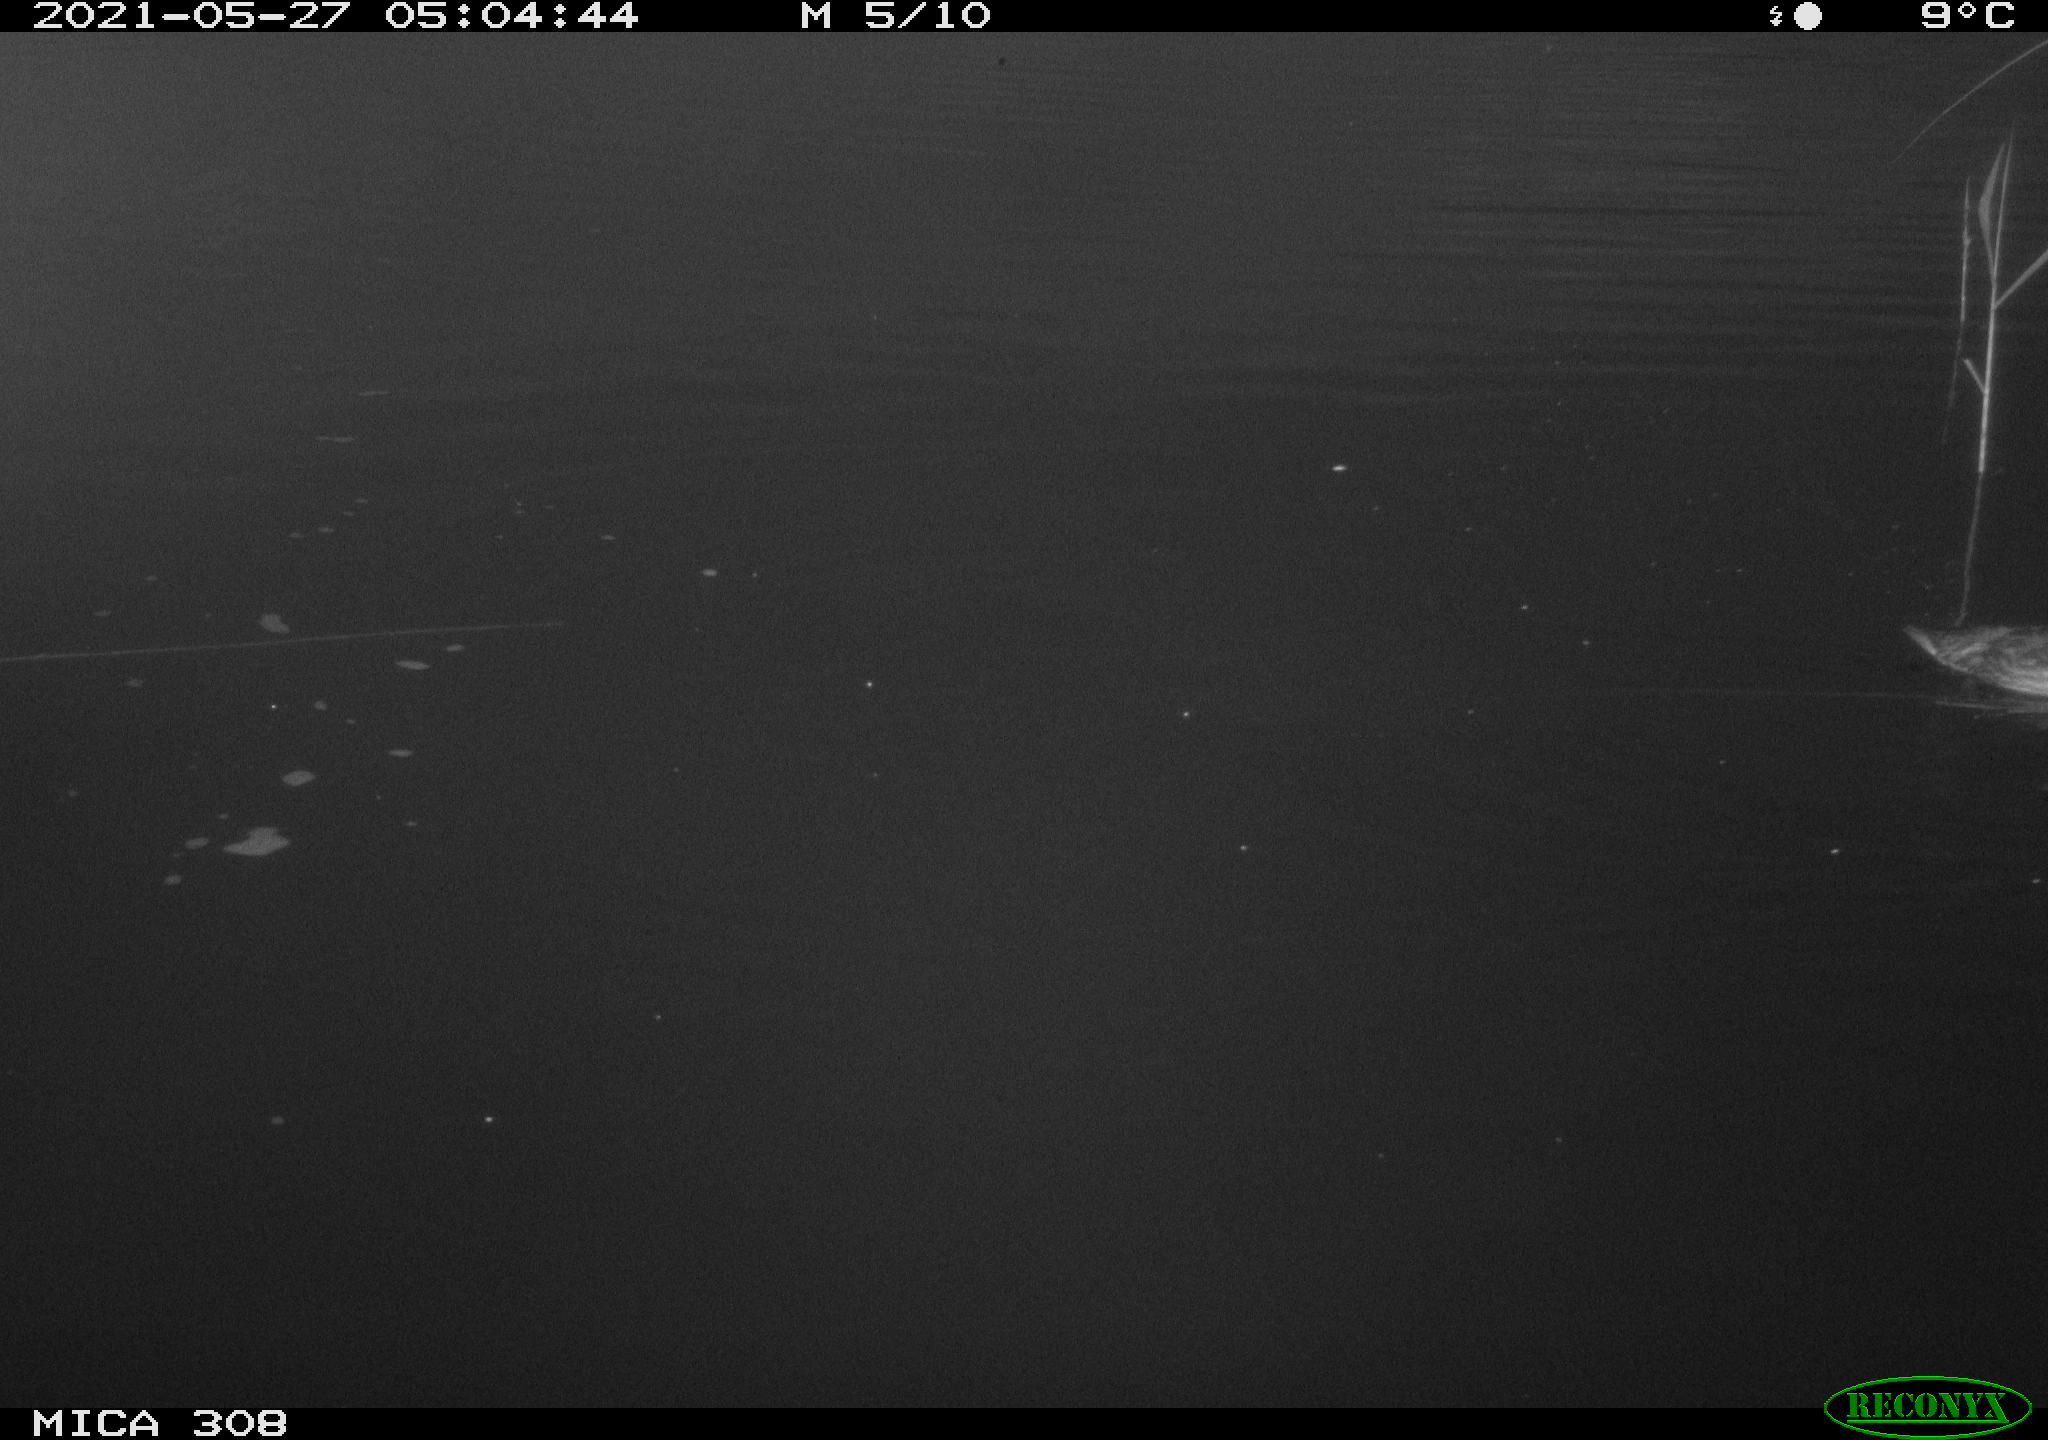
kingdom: Animalia
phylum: Chordata
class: Aves
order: Anseriformes
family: Anatidae
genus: Anas
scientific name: Anas platyrhynchos
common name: Mallard
